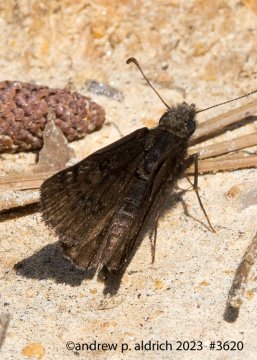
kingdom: Animalia
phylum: Arthropoda
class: Insecta
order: Lepidoptera
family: Hesperiidae
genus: Erynnis
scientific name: Erynnis
